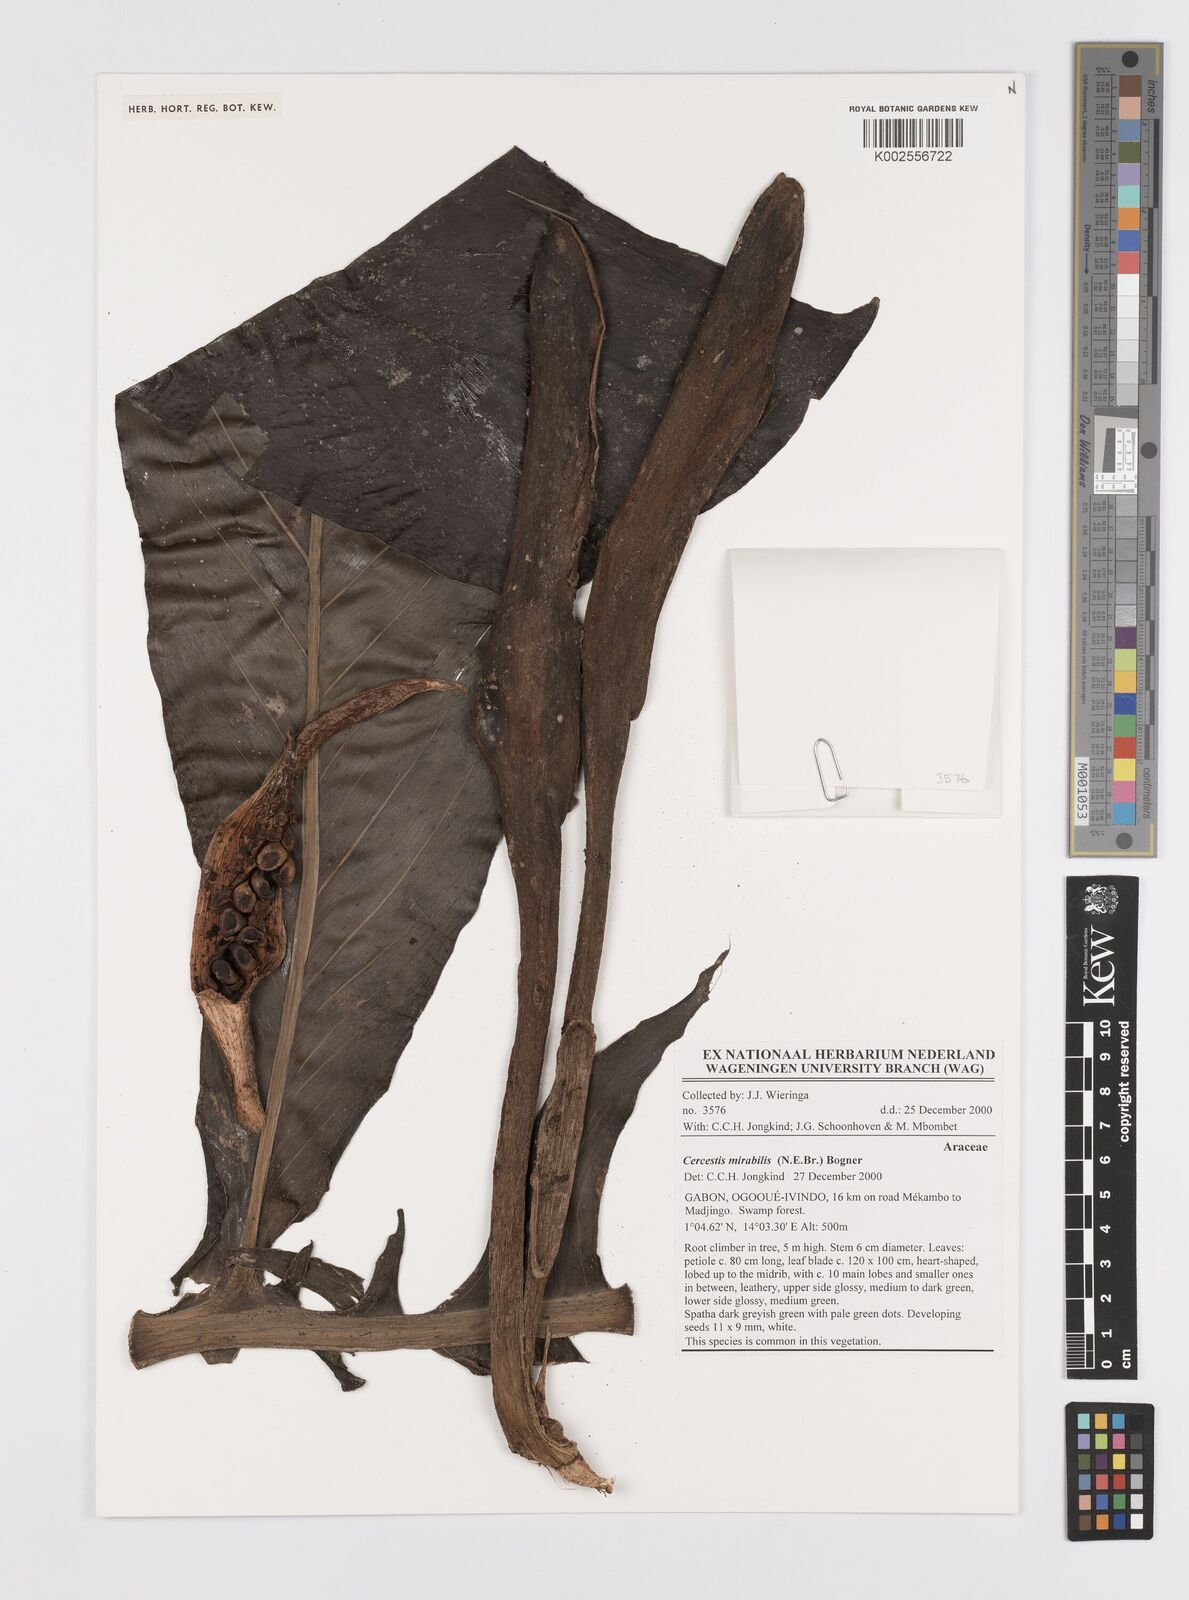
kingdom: Plantae
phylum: Tracheophyta
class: Liliopsida
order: Alismatales
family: Araceae
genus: Cercestis
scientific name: Cercestis camerunensis
